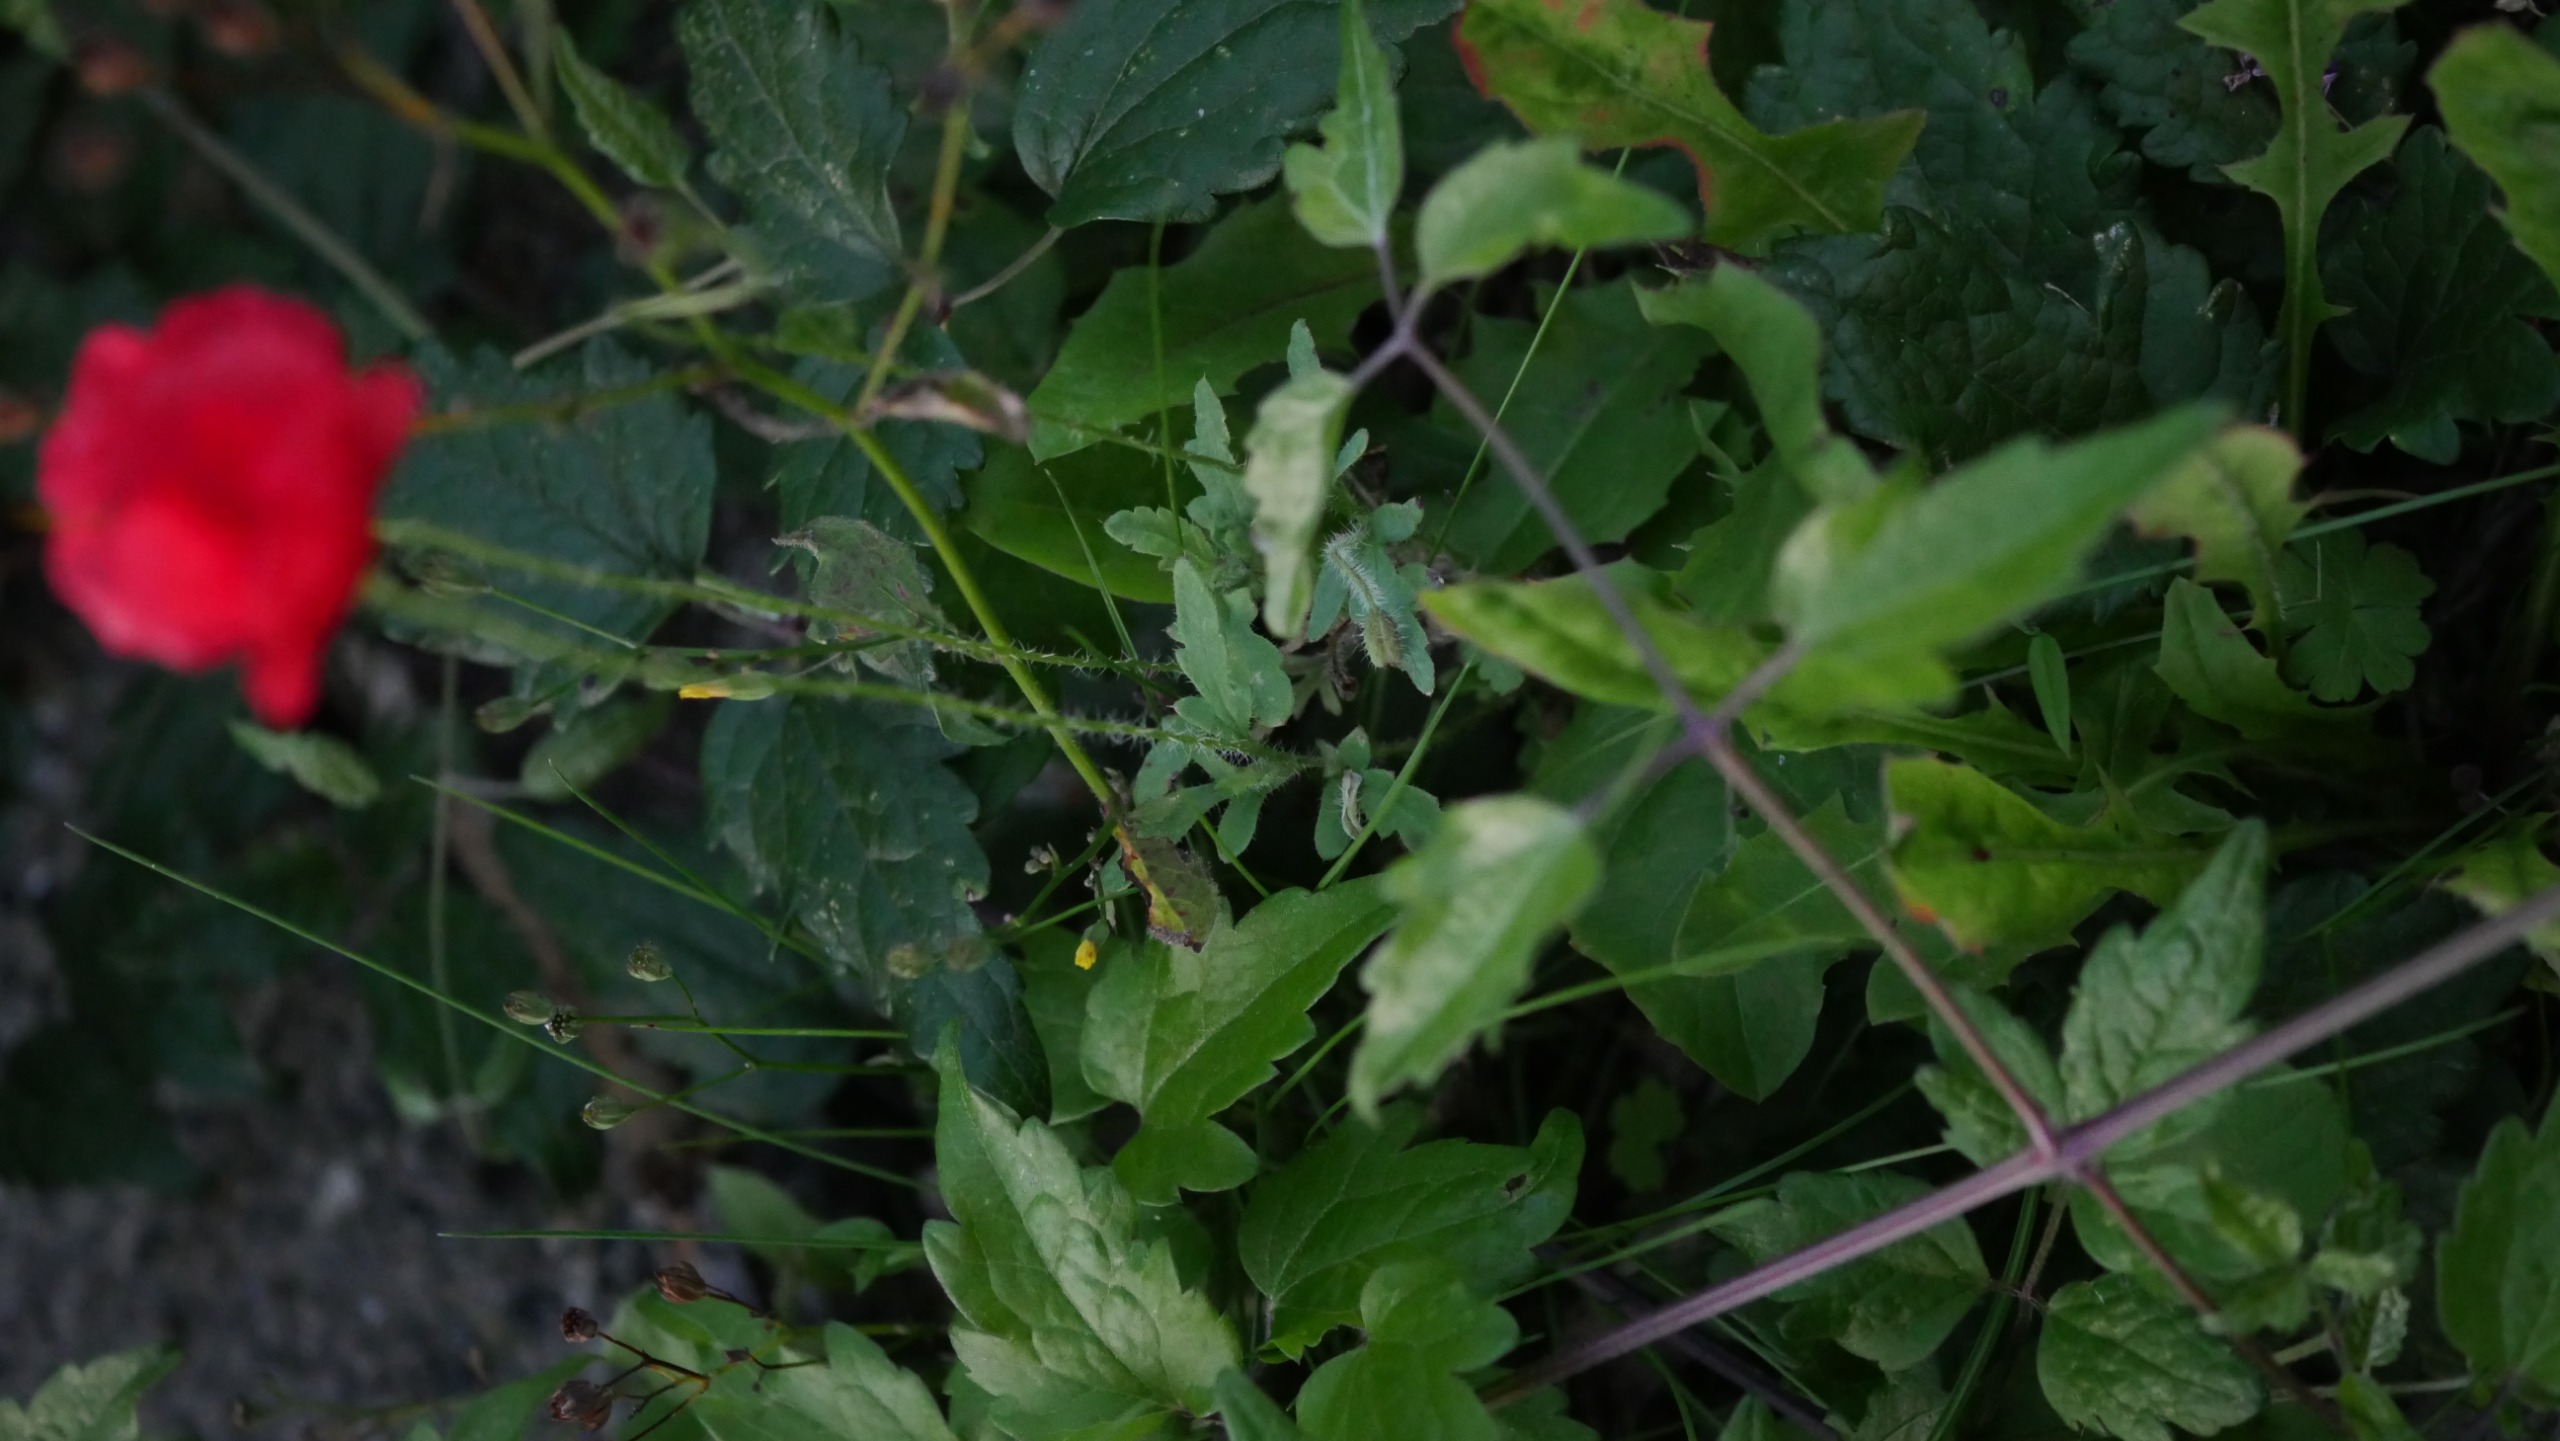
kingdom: Plantae
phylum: Tracheophyta
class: Magnoliopsida
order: Ranunculales
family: Papaveraceae
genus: Papaver
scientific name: Papaver rhoeas
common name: Korn-valmue
